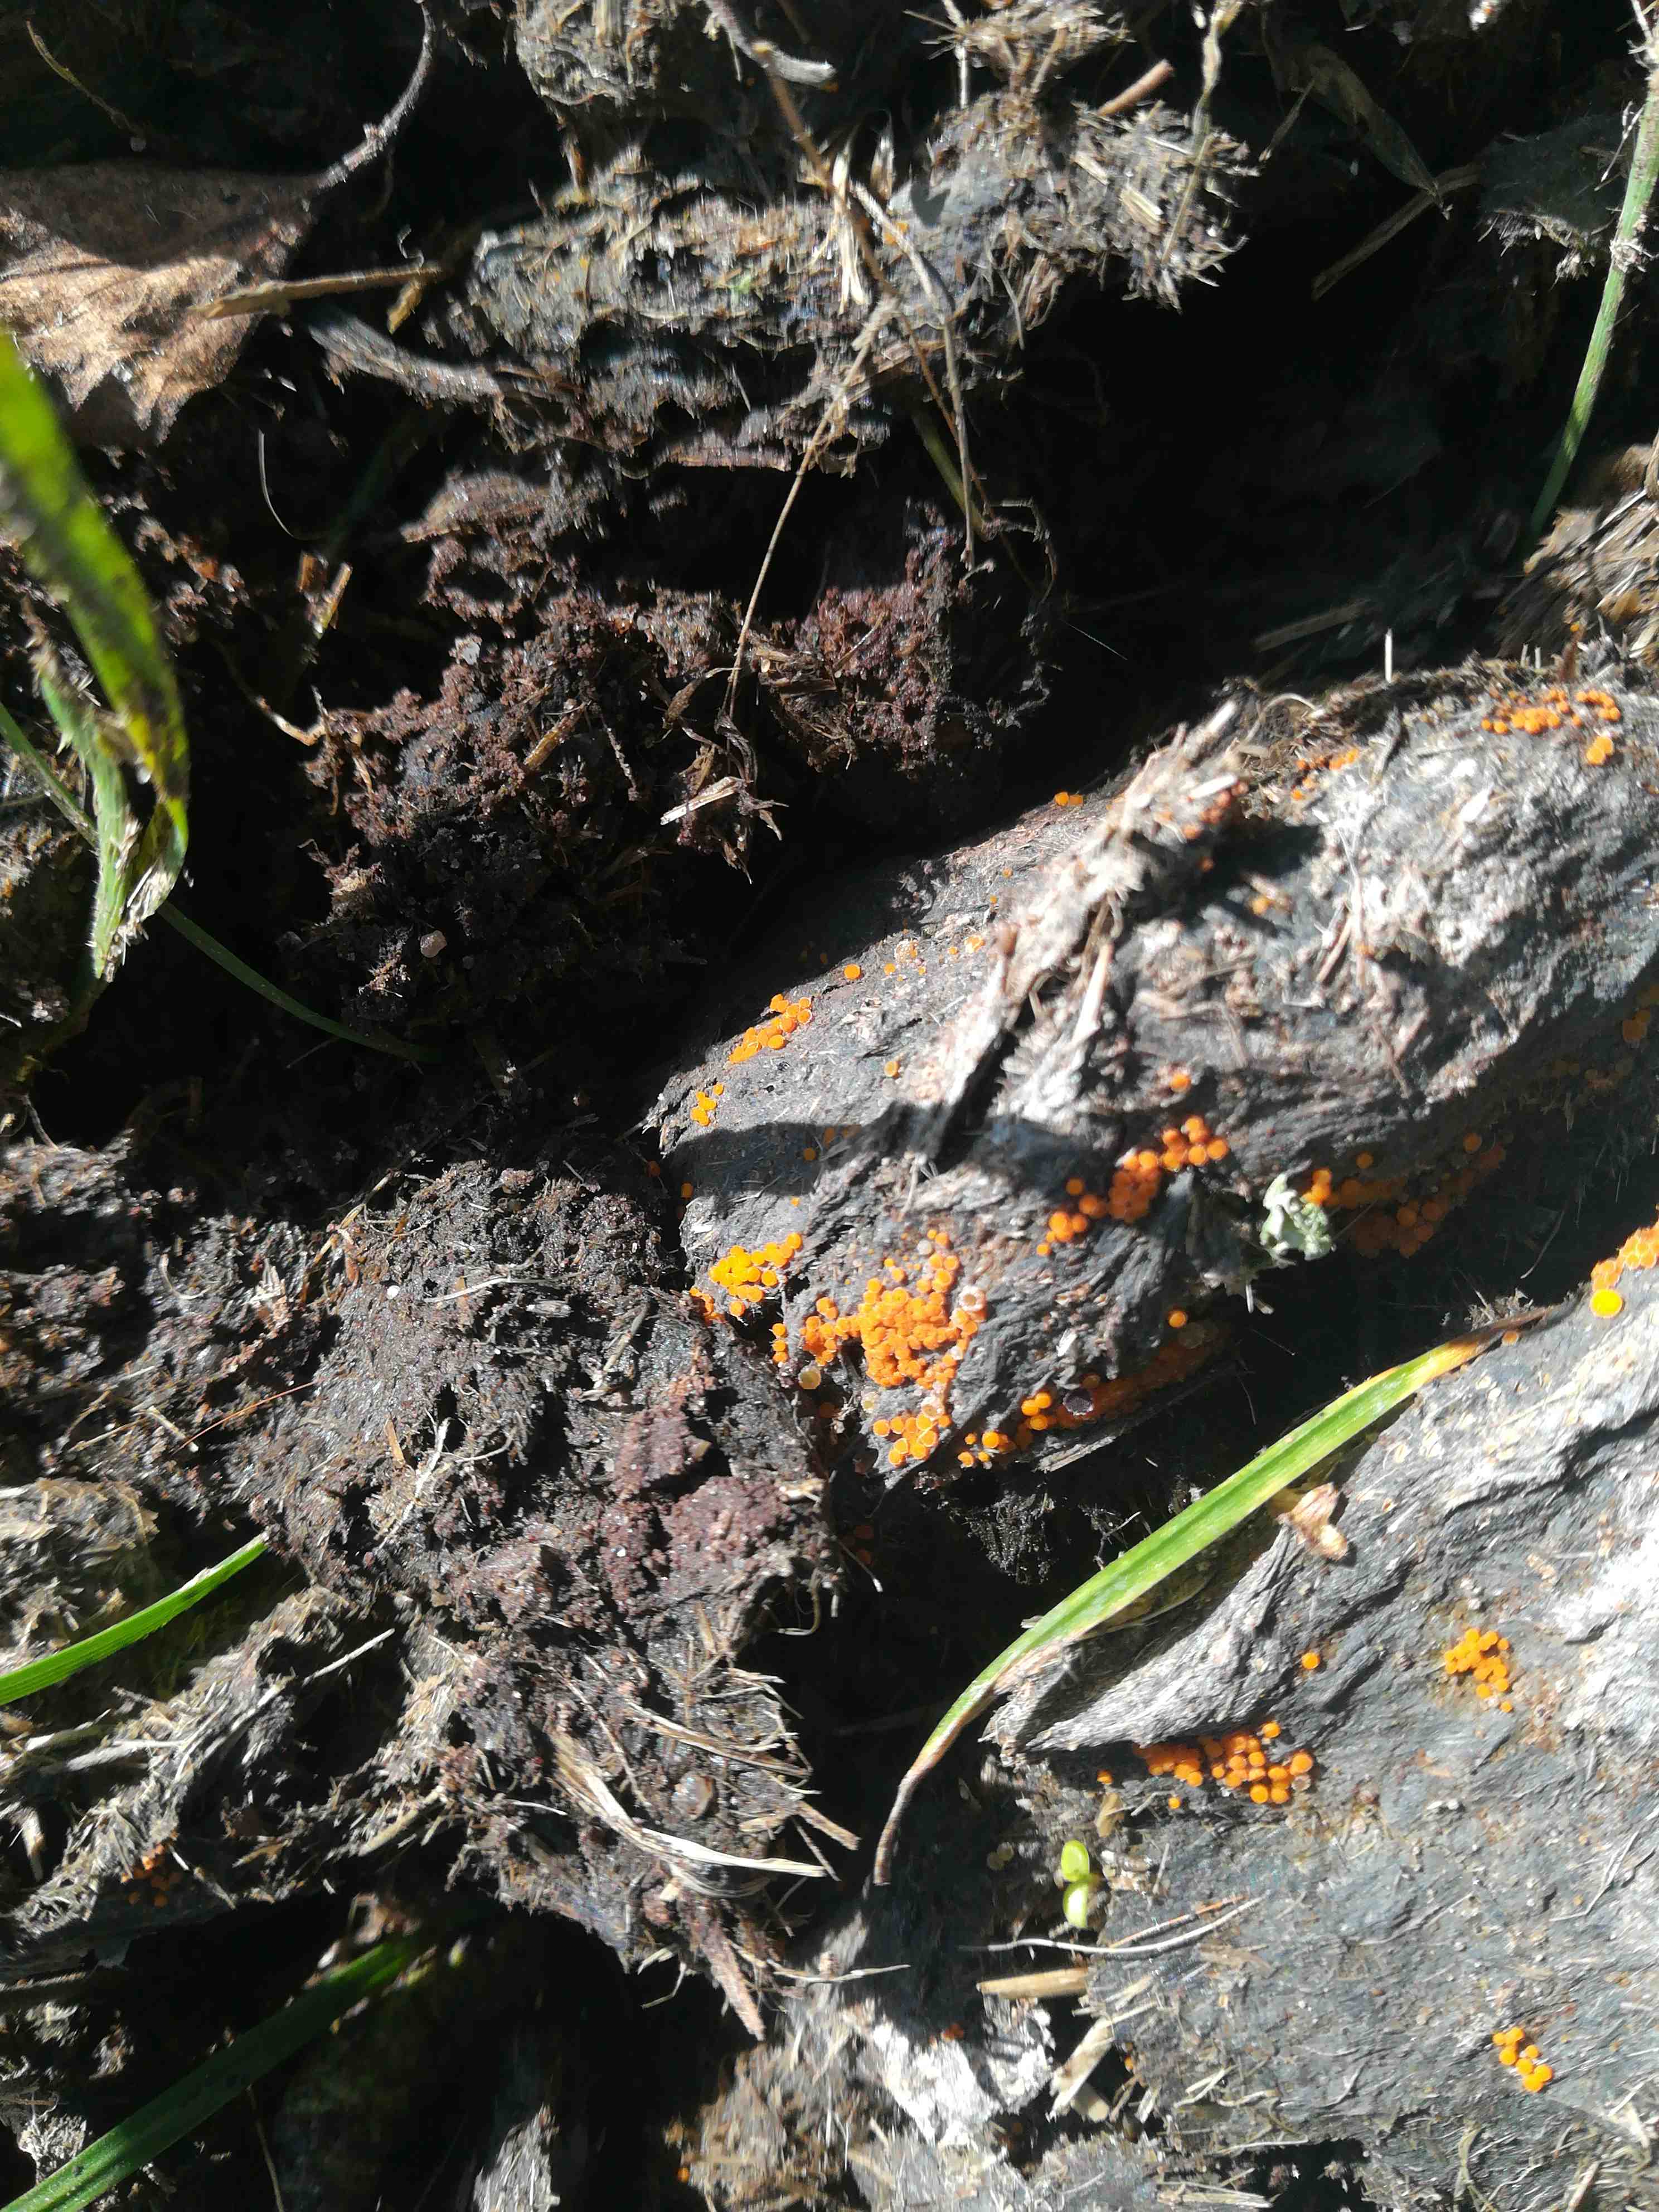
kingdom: Fungi
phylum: Ascomycota
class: Pezizomycetes
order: Pezizales
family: Pyronemataceae
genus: Cheilymenia
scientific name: Cheilymenia
